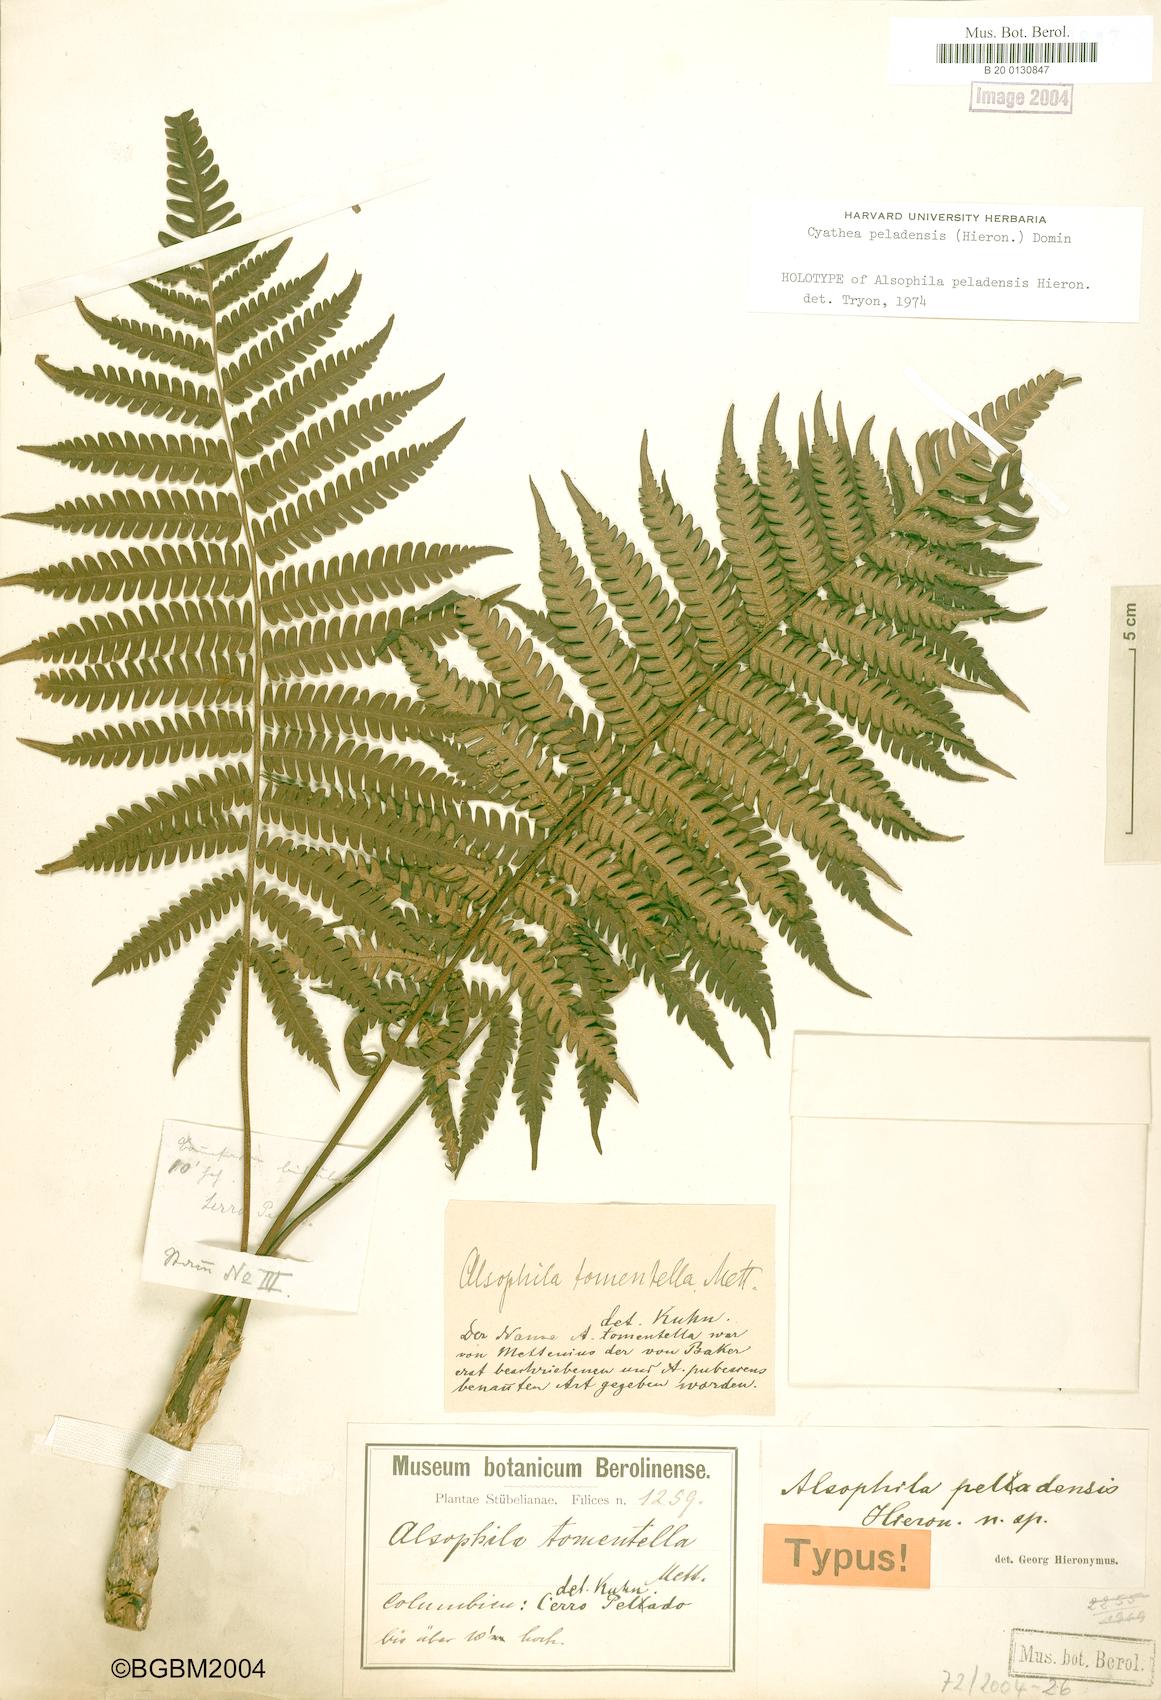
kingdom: Plantae
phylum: Tracheophyta
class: Polypodiopsida
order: Cyatheales
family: Cyatheaceae
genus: Cyathea
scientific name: Cyathea peladensis
